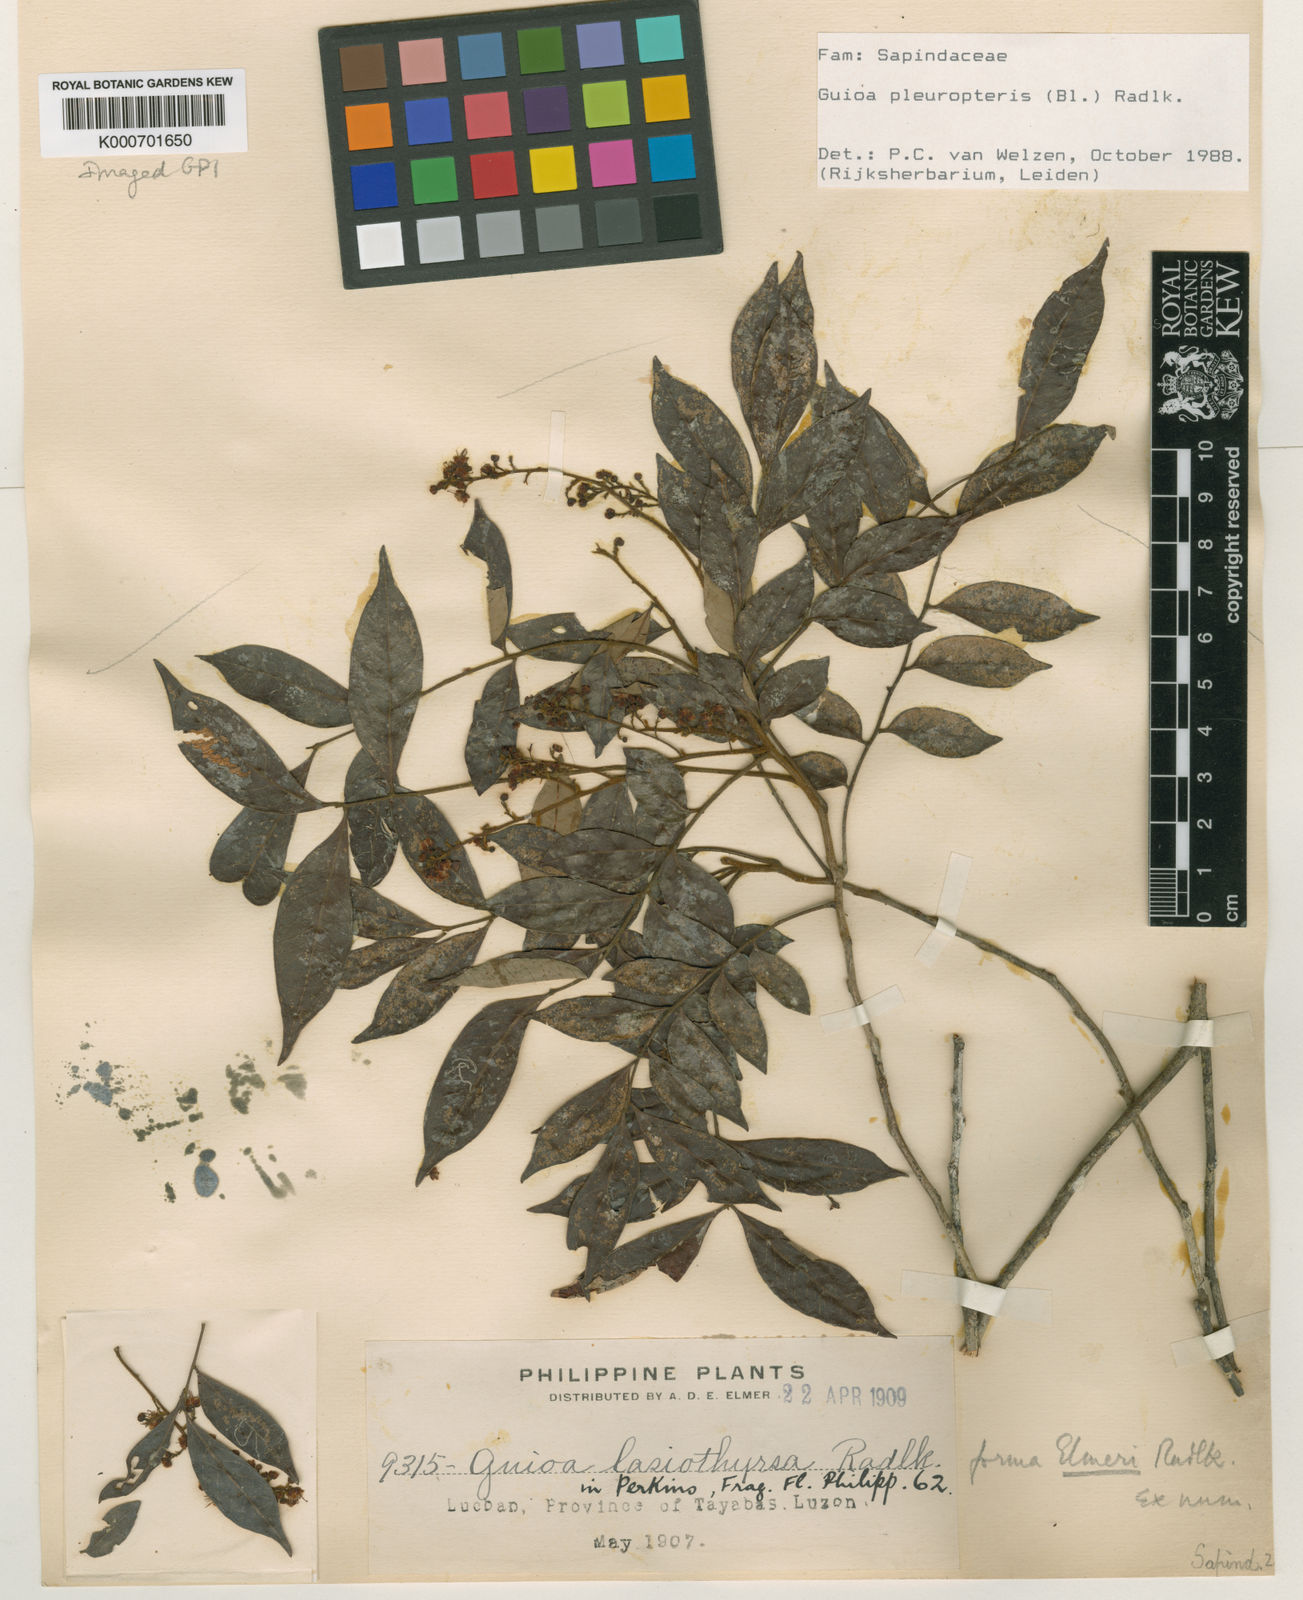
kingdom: Plantae
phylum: Tracheophyta
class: Magnoliopsida
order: Sapindales
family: Sapindaceae
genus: Guioa
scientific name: Guioa pleuropteris
